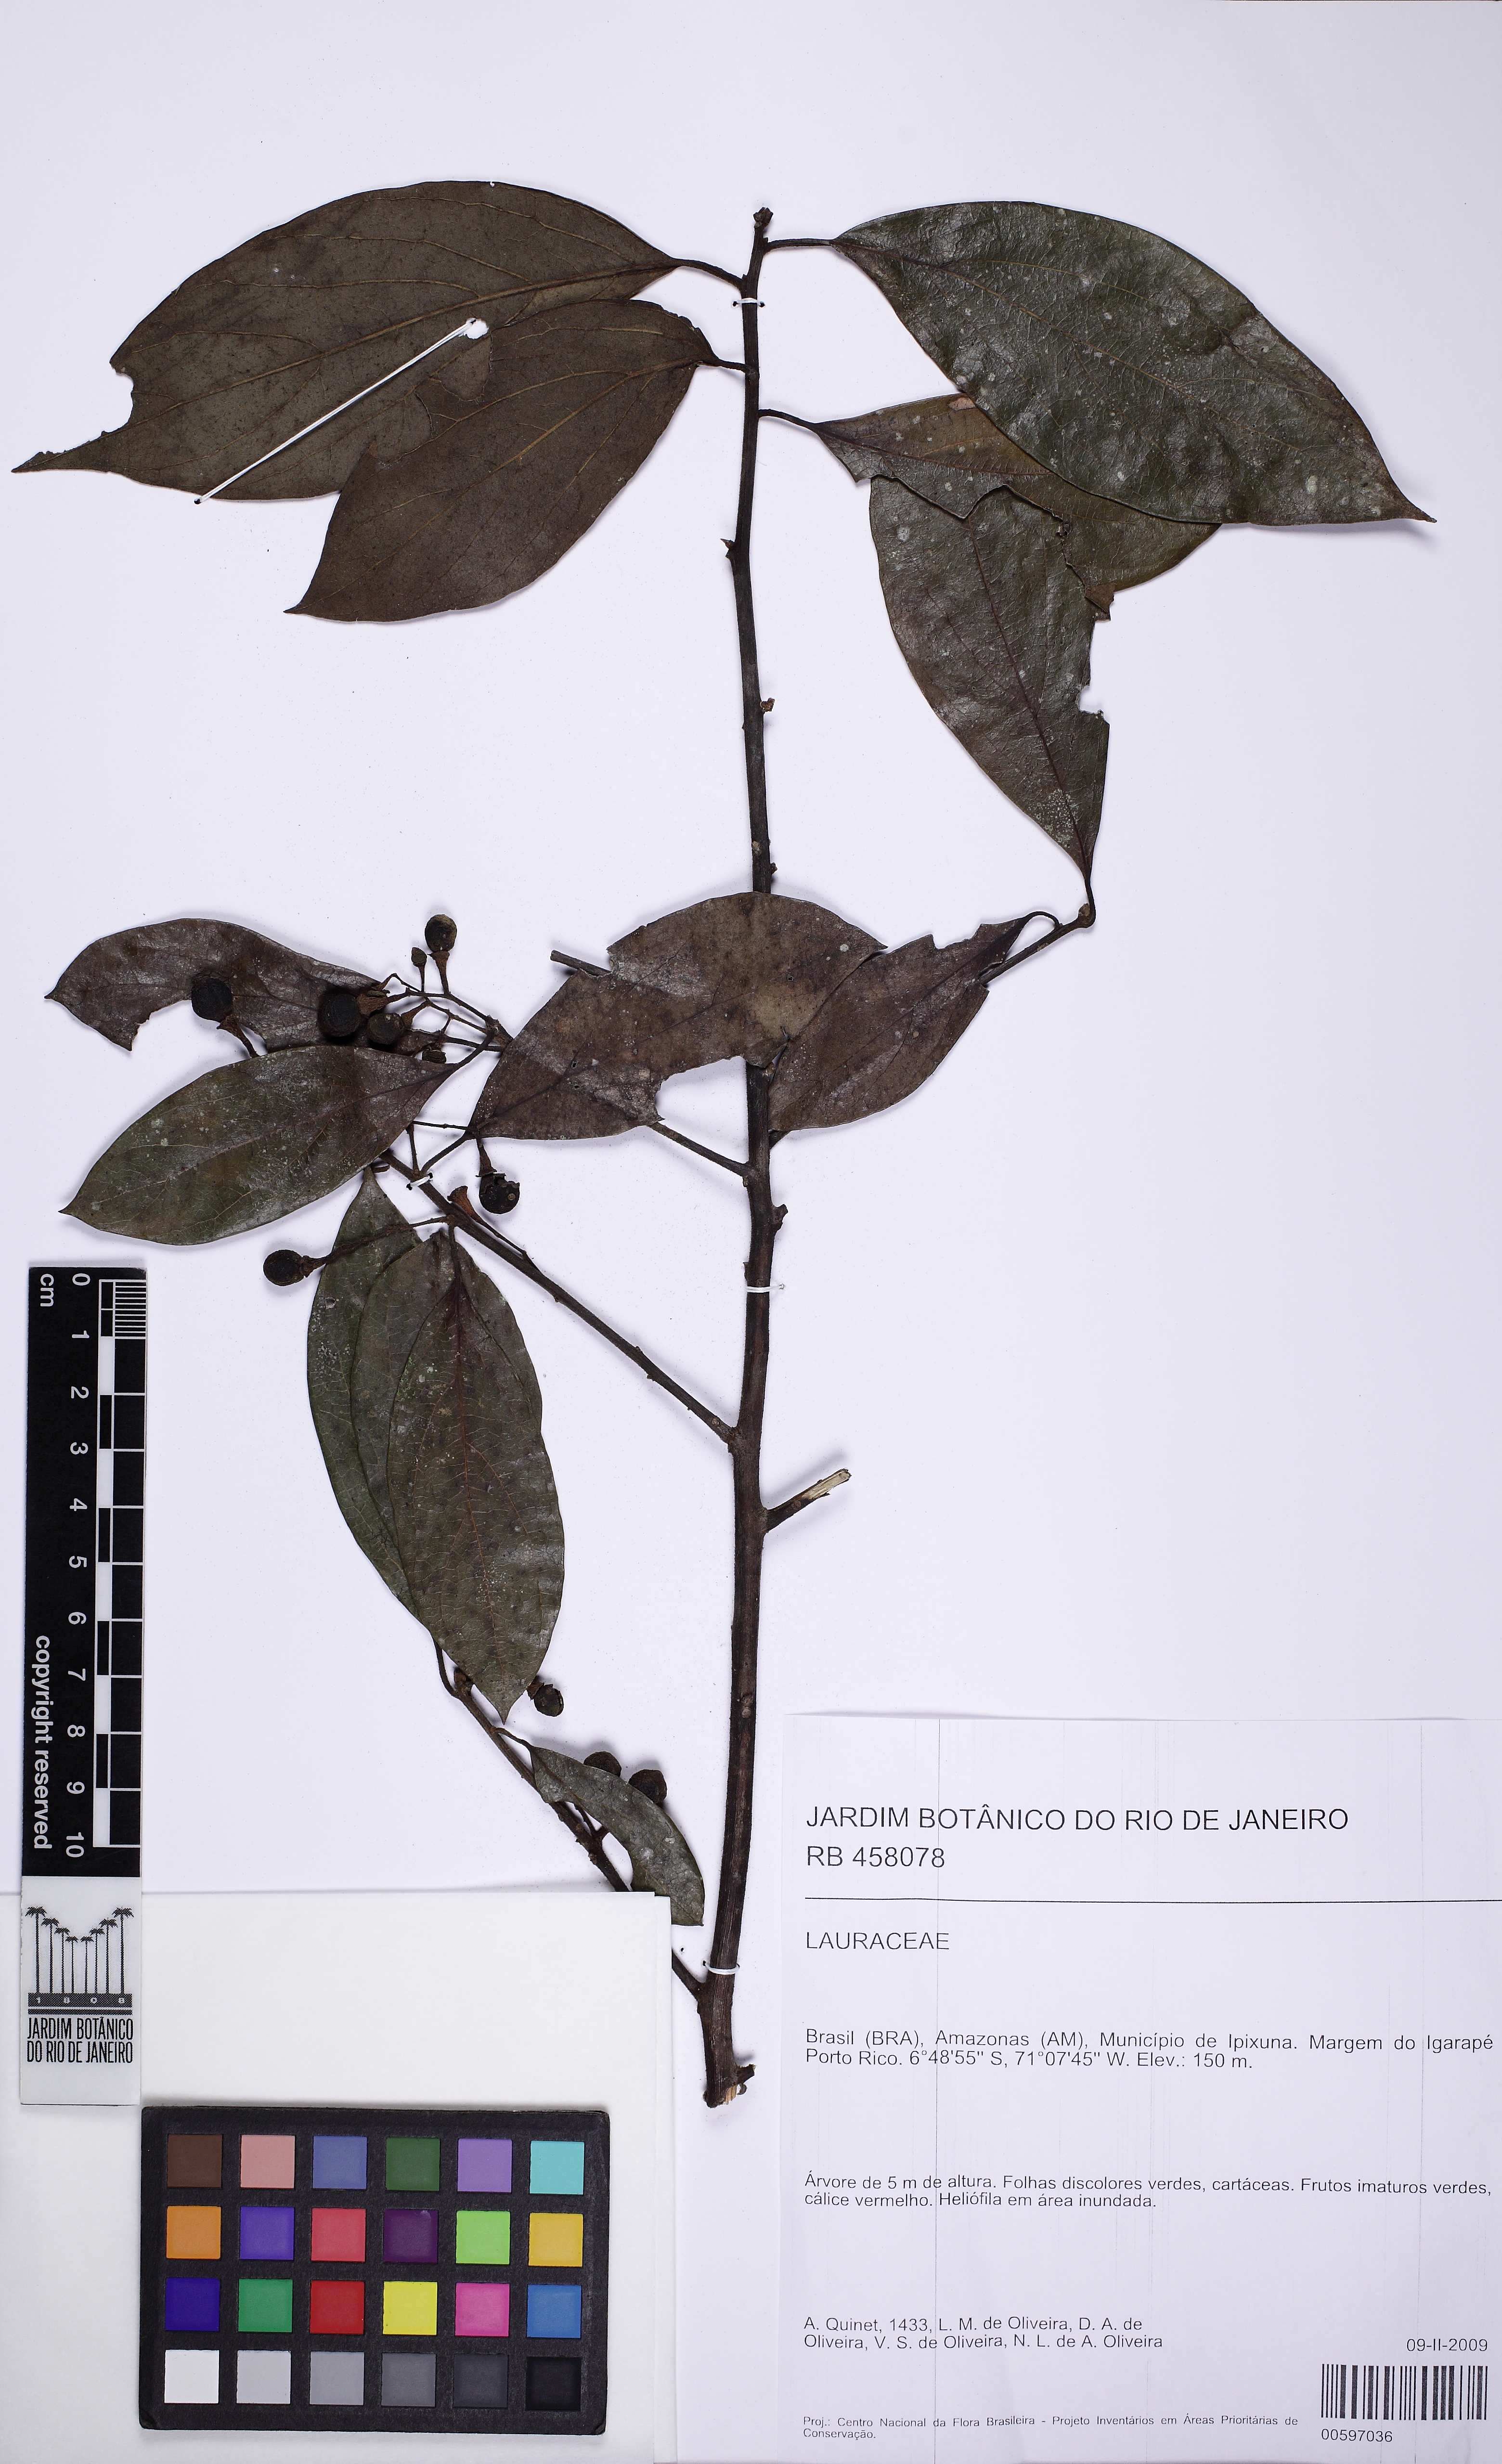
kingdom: Plantae
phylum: Tracheophyta
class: Magnoliopsida
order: Laurales
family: Lauraceae
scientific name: Lauraceae
